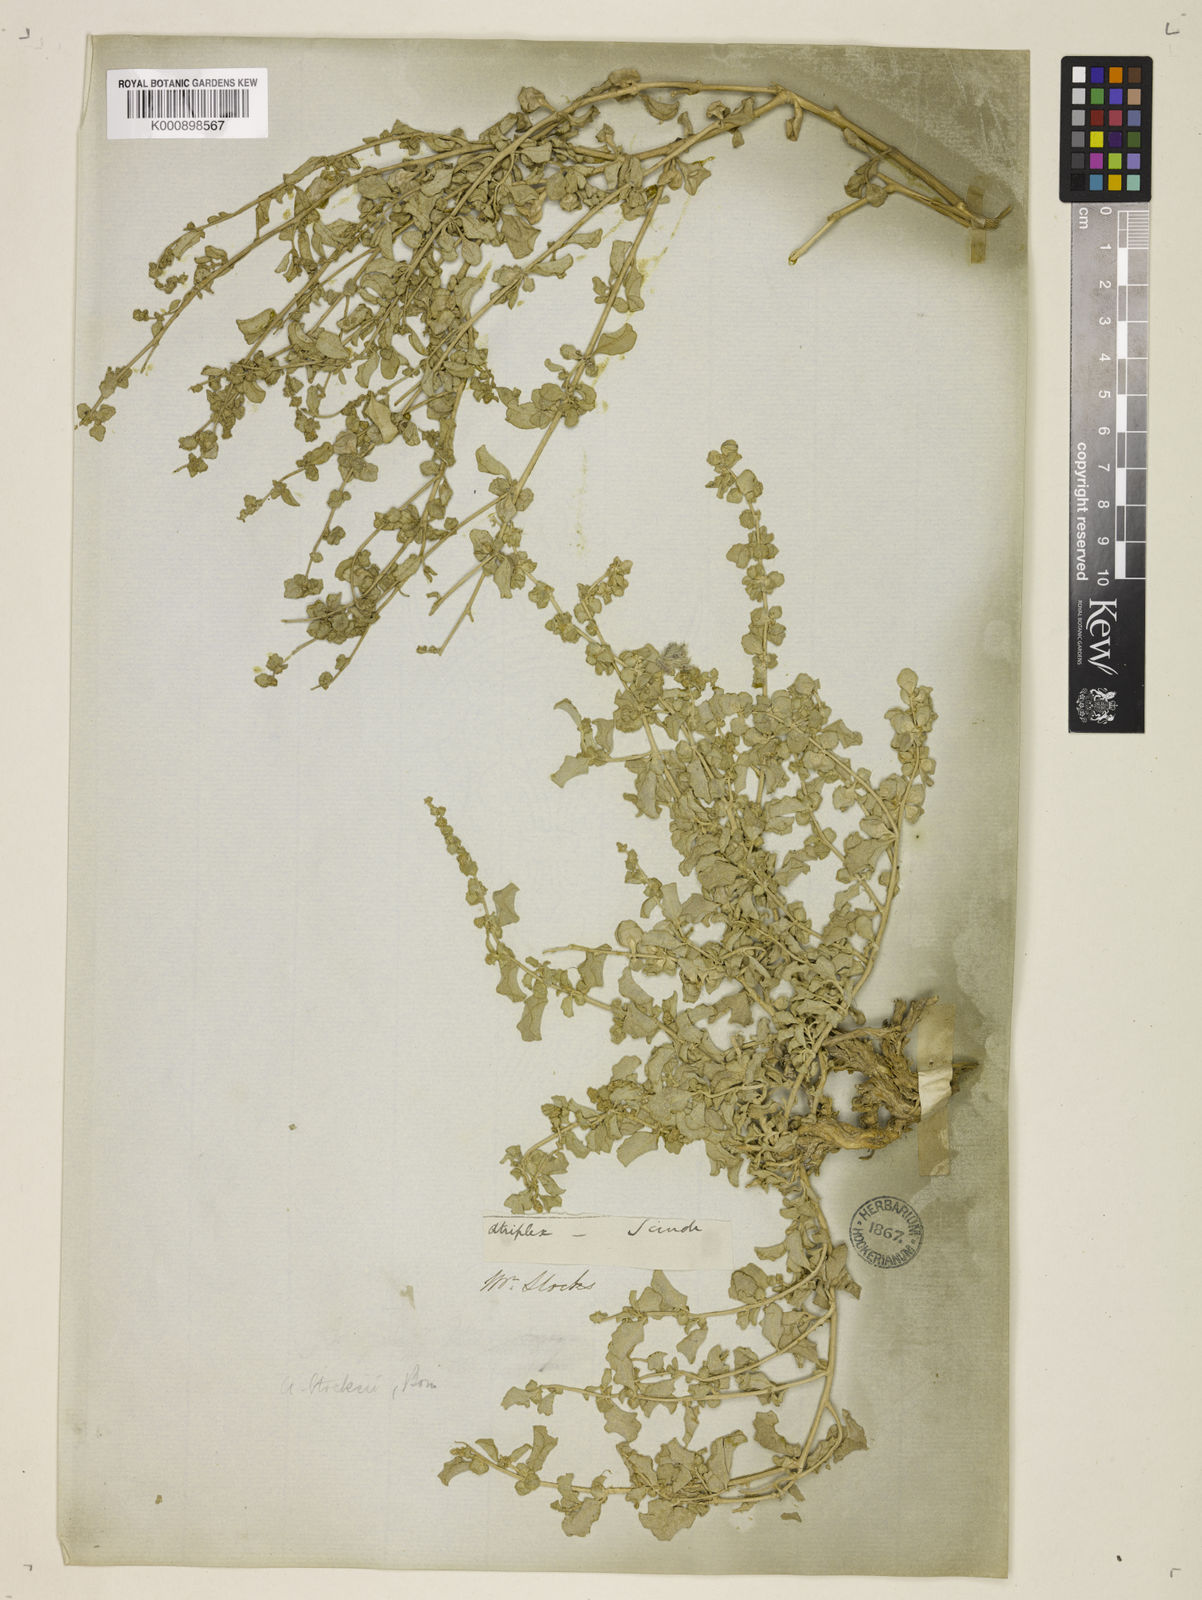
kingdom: Plantae
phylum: Tracheophyta
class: Magnoliopsida
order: Caryophyllales
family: Amaranthaceae
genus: Atriplex
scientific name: Atriplex stocksii
